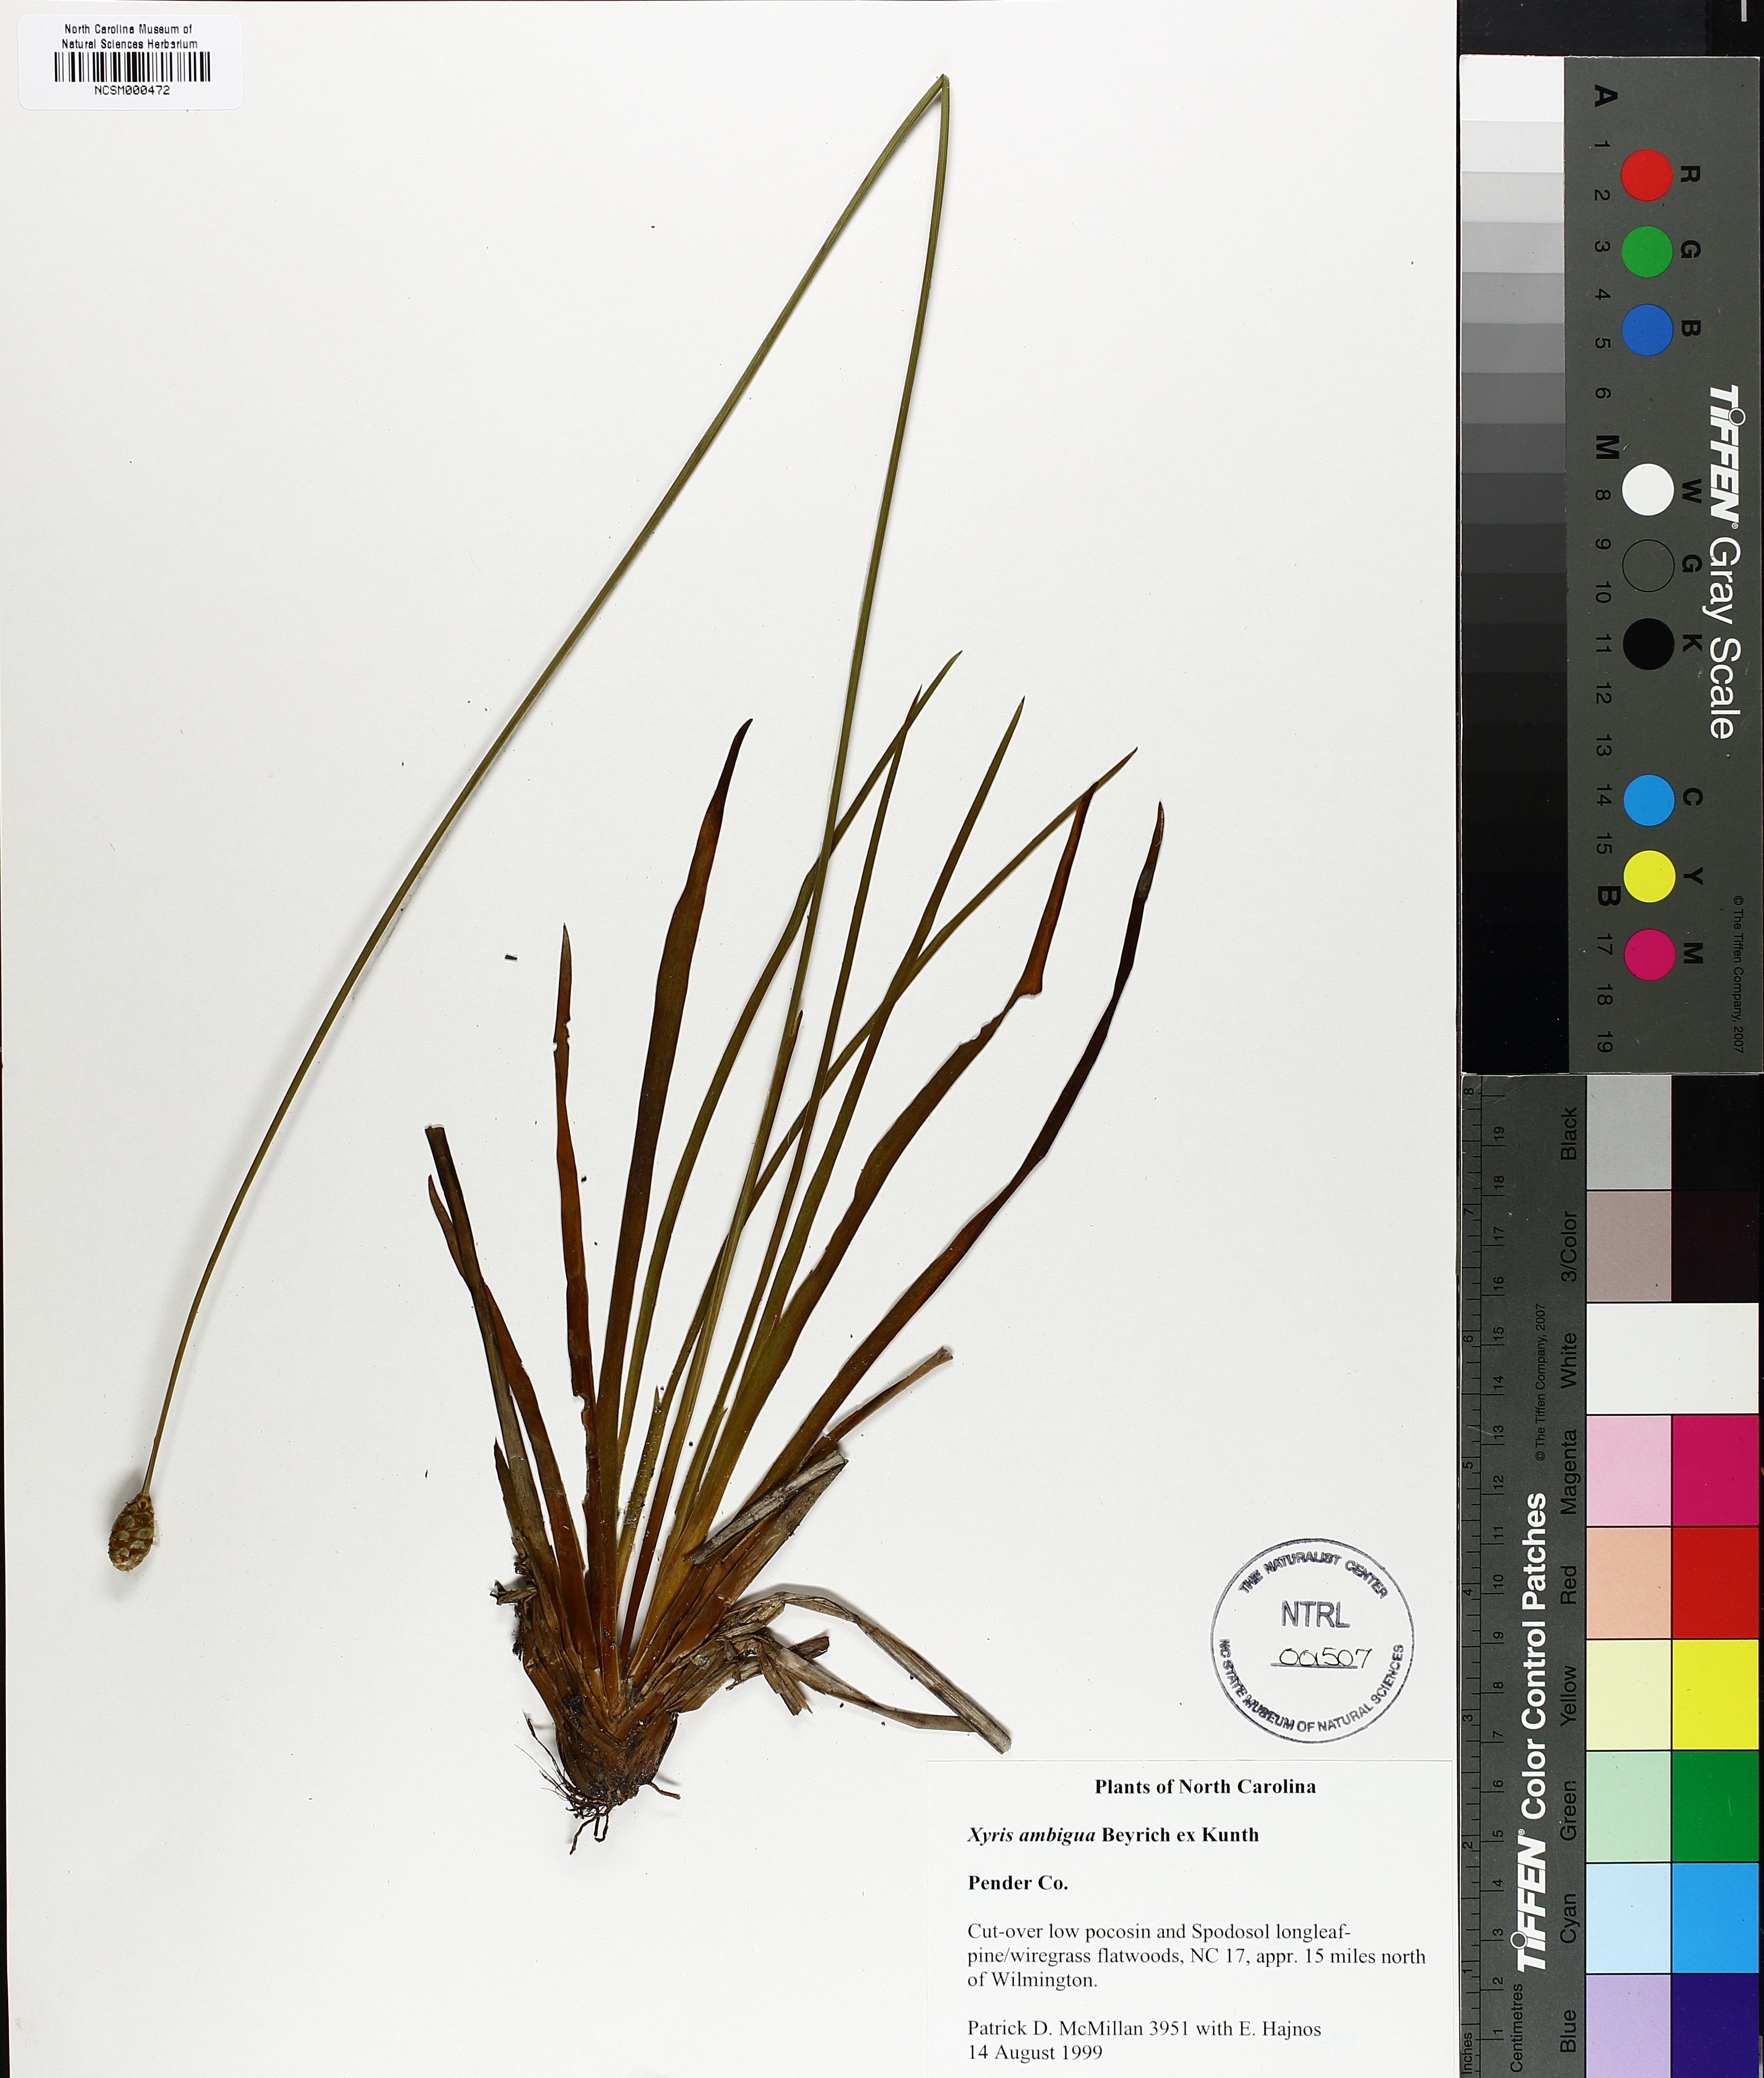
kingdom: Plantae
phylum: Tracheophyta
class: Liliopsida
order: Poales
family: Xyridaceae
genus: Xyris
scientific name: Xyris ambigua
